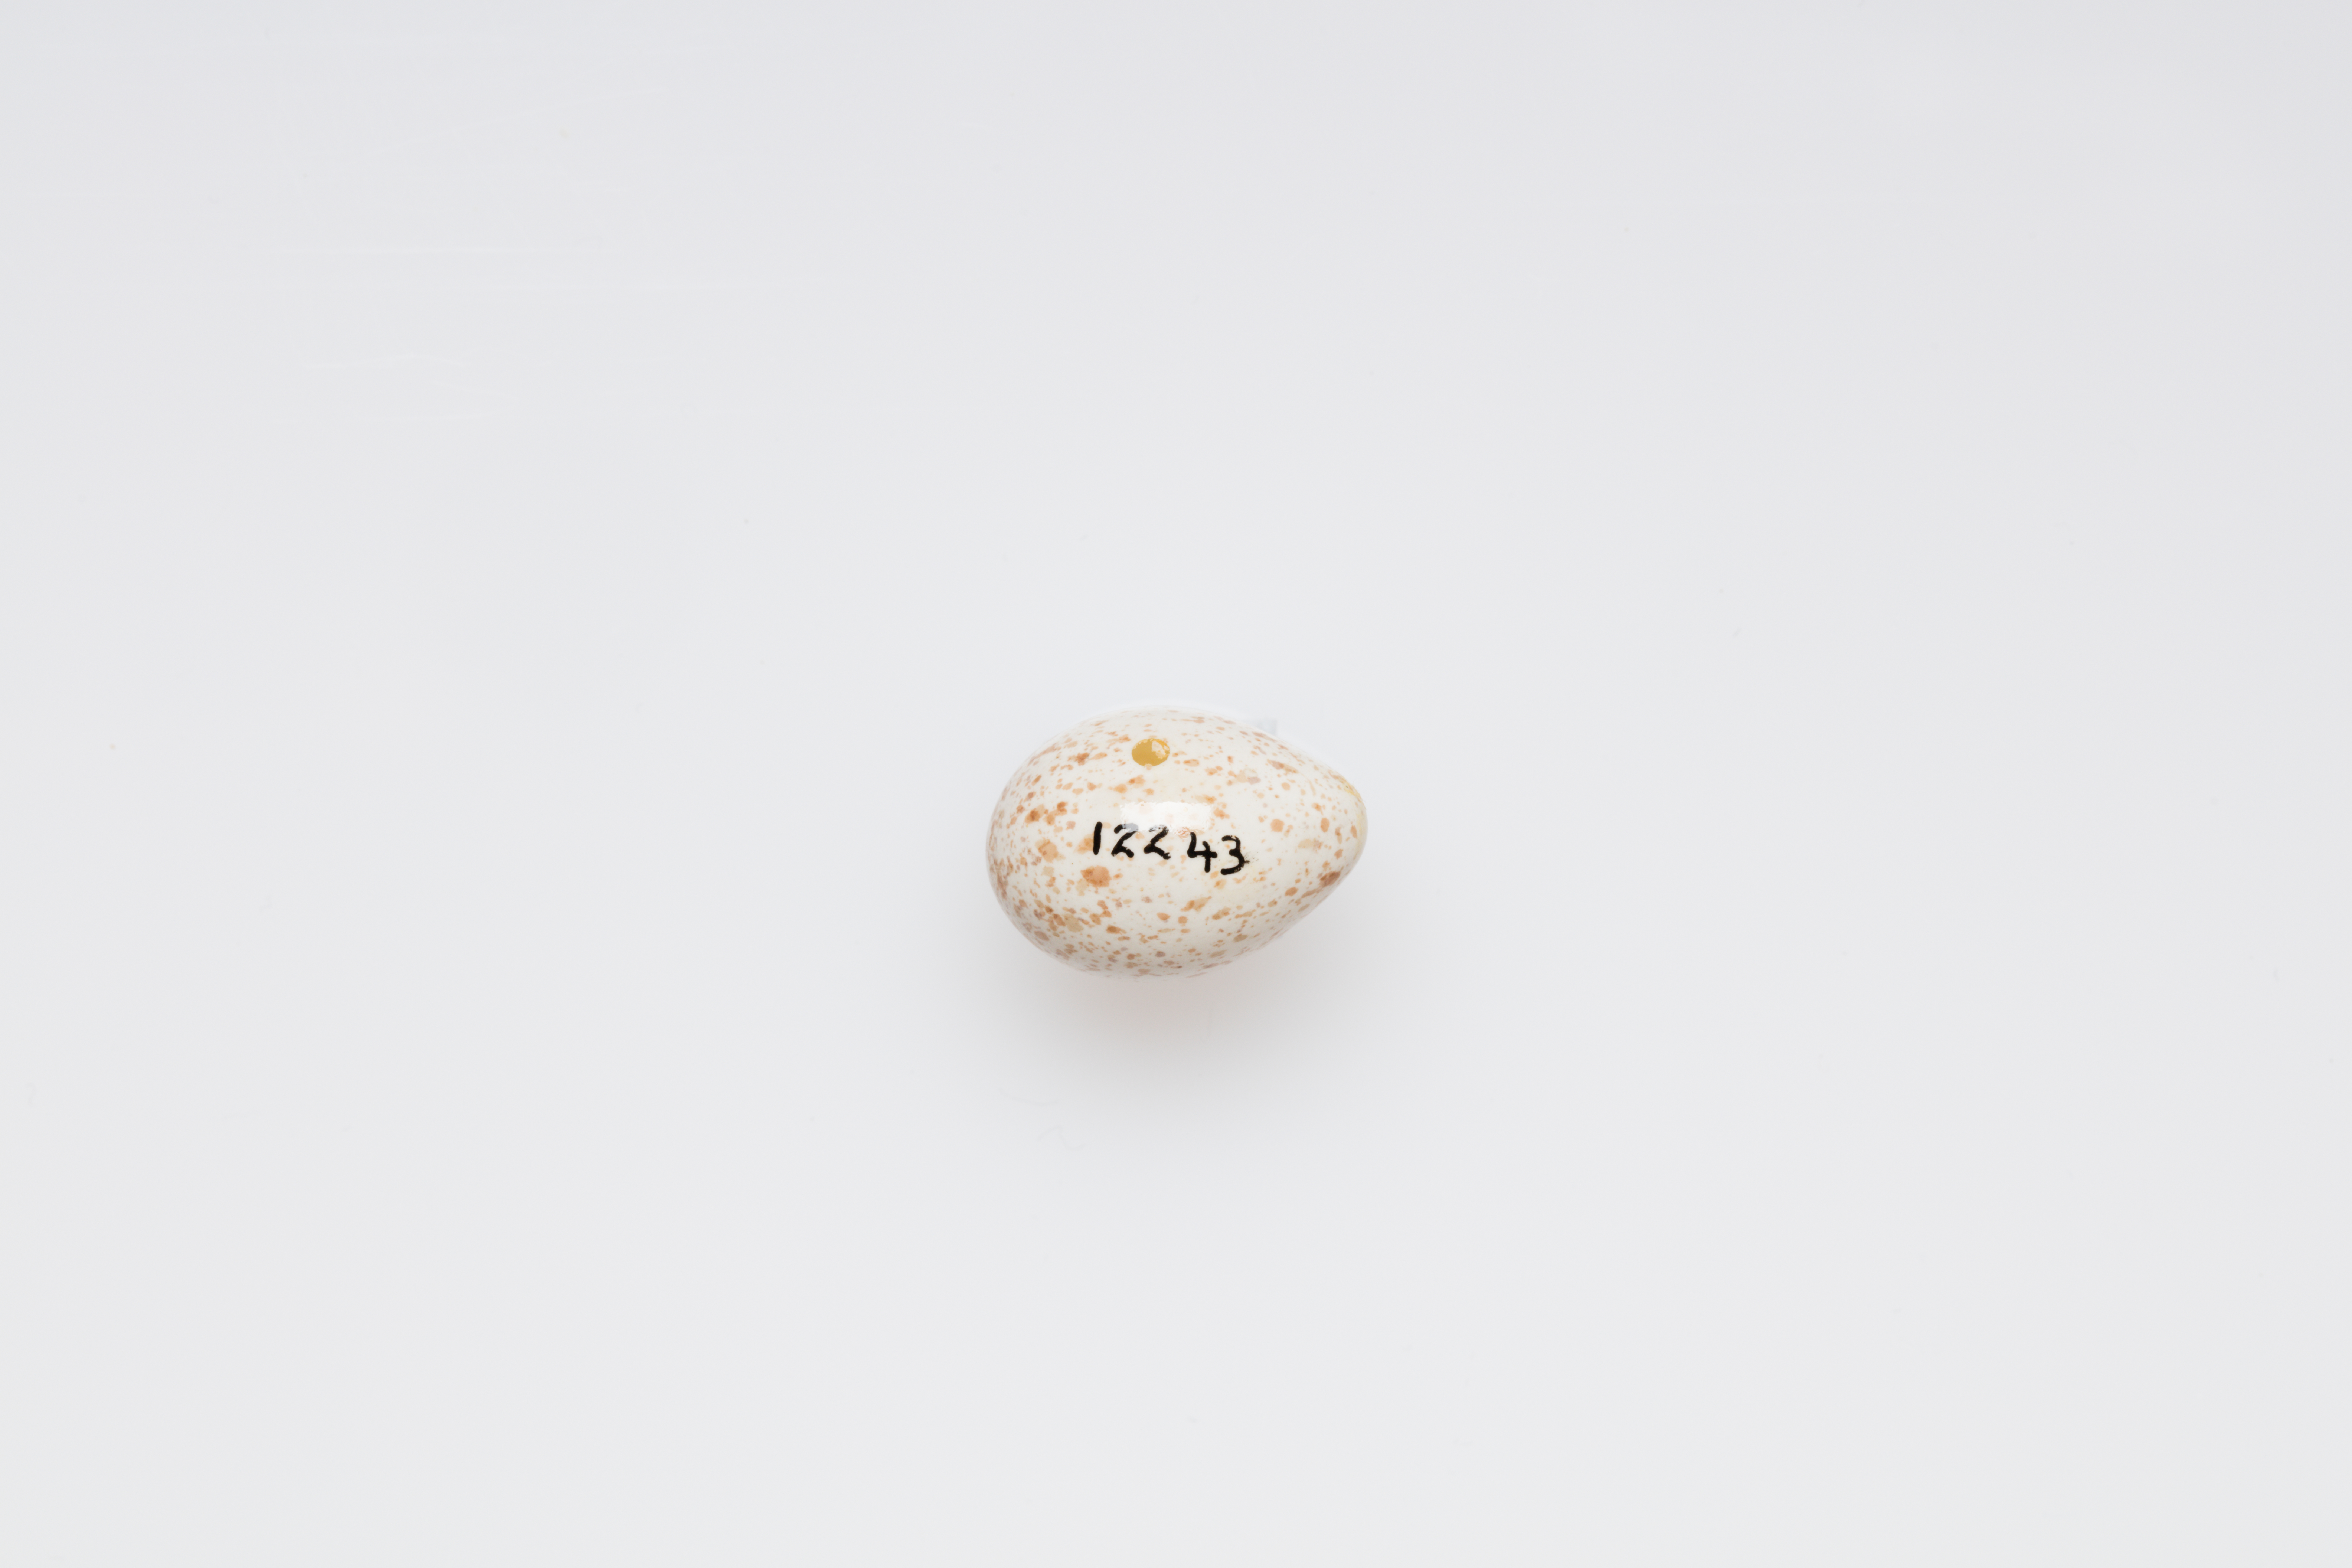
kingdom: Animalia
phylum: Chordata
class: Aves
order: Passeriformes
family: Paridae
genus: Cyanistes
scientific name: Cyanistes caeruleus
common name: Eurasian blue tit
